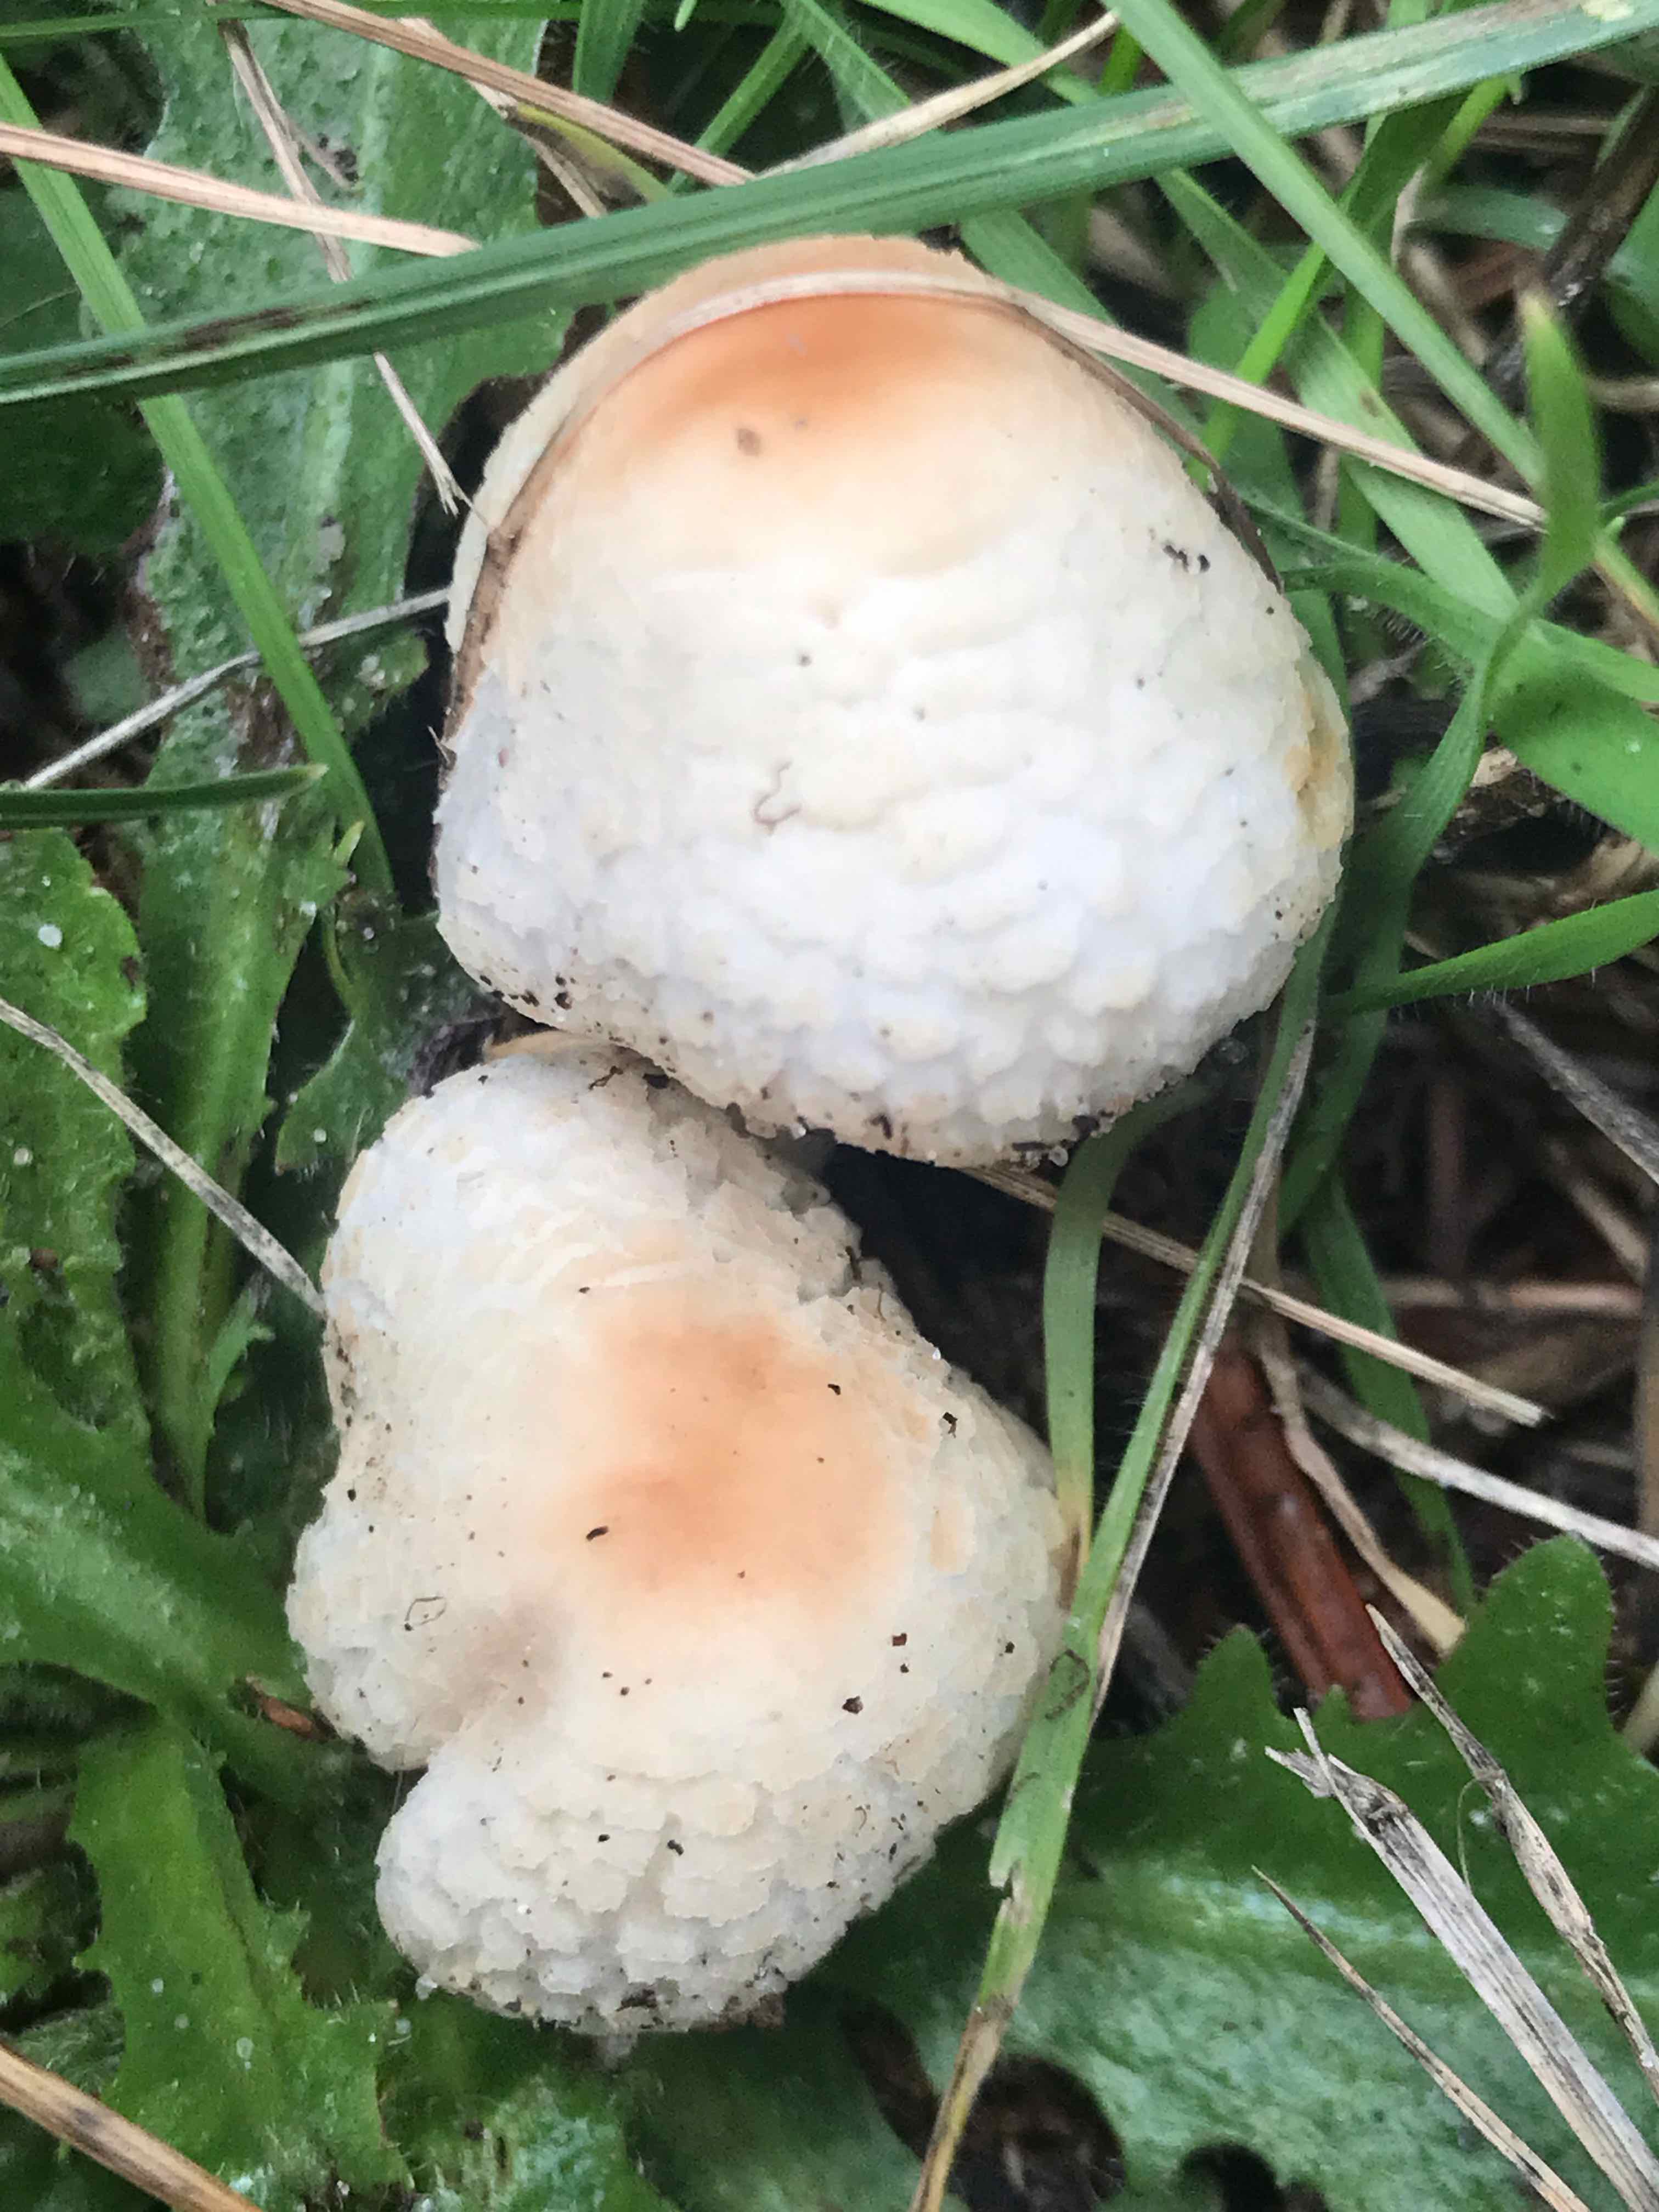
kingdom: Fungi
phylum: Basidiomycota
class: Agaricomycetes
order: Agaricales
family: Agaricaceae
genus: Lepiota
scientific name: Lepiota
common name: parasolhat
